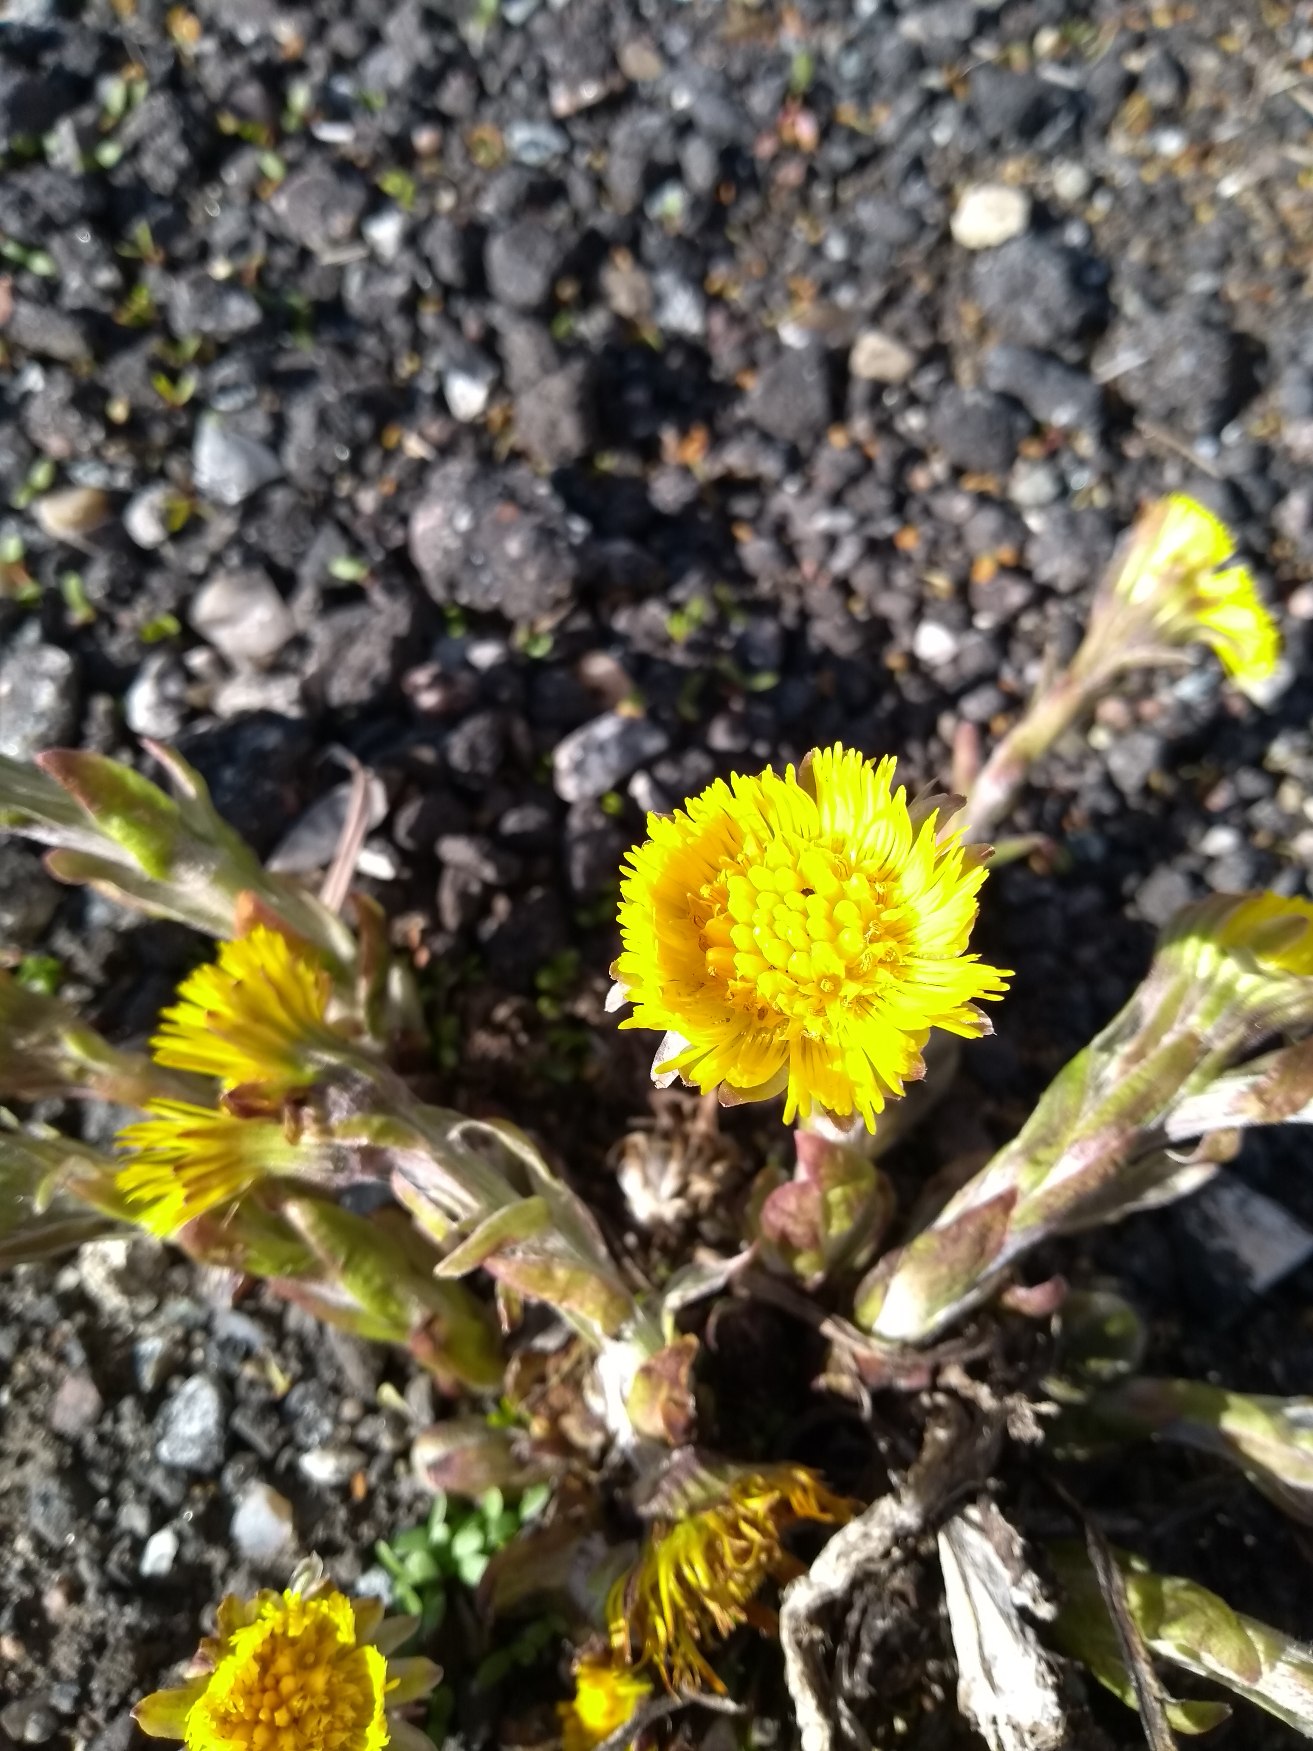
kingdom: Plantae
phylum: Tracheophyta
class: Magnoliopsida
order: Asterales
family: Asteraceae
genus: Tussilago
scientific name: Tussilago farfara
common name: Følfod
